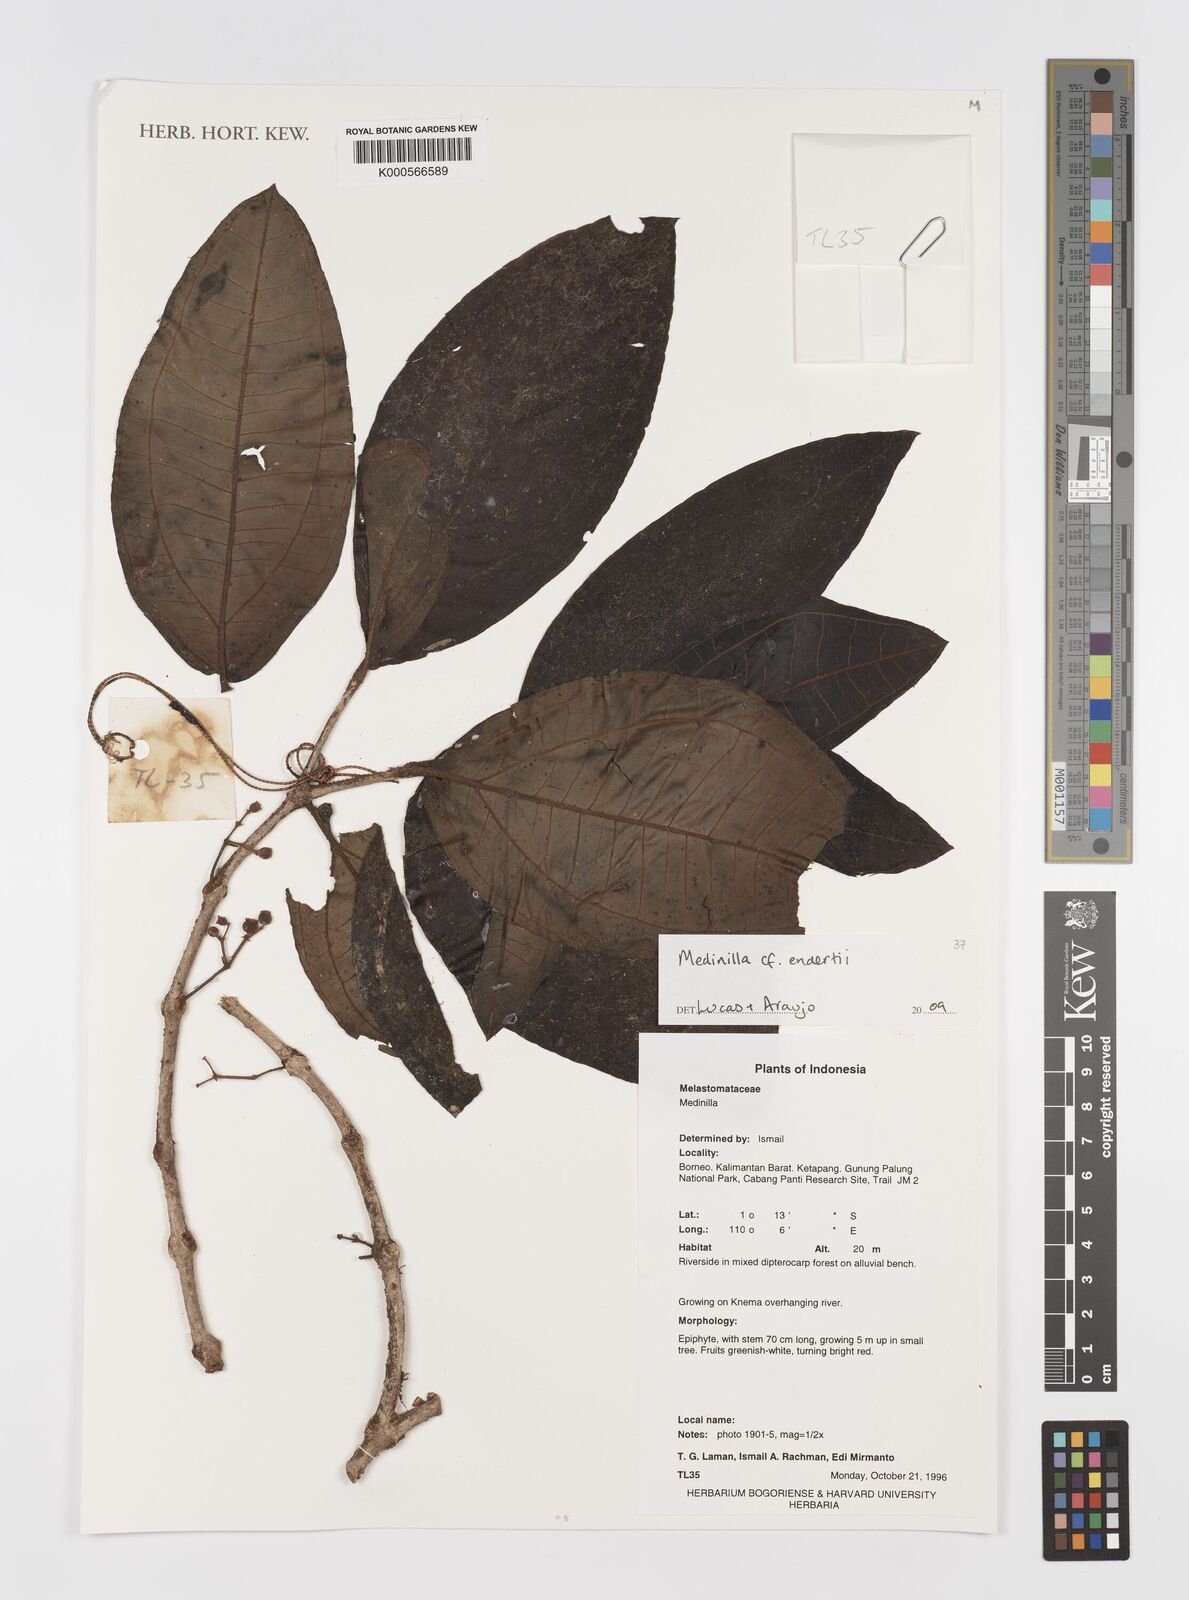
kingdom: Plantae
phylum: Tracheophyta
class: Magnoliopsida
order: Myrtales
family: Melastomataceae
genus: Medinilla
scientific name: Medinilla endertii
